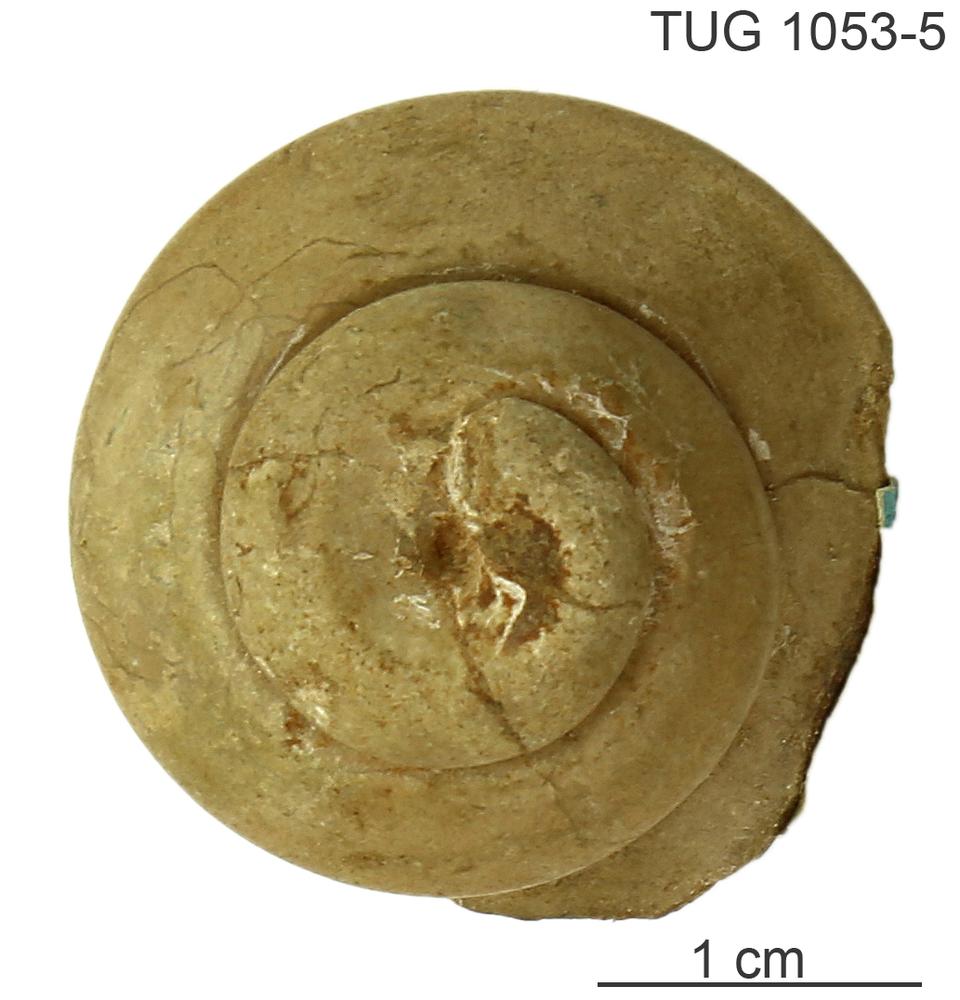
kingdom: Animalia
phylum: Mollusca
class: Gastropoda
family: Lophospiridae
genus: Lophospira
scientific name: Lophospira Worthenia mickwitzi
